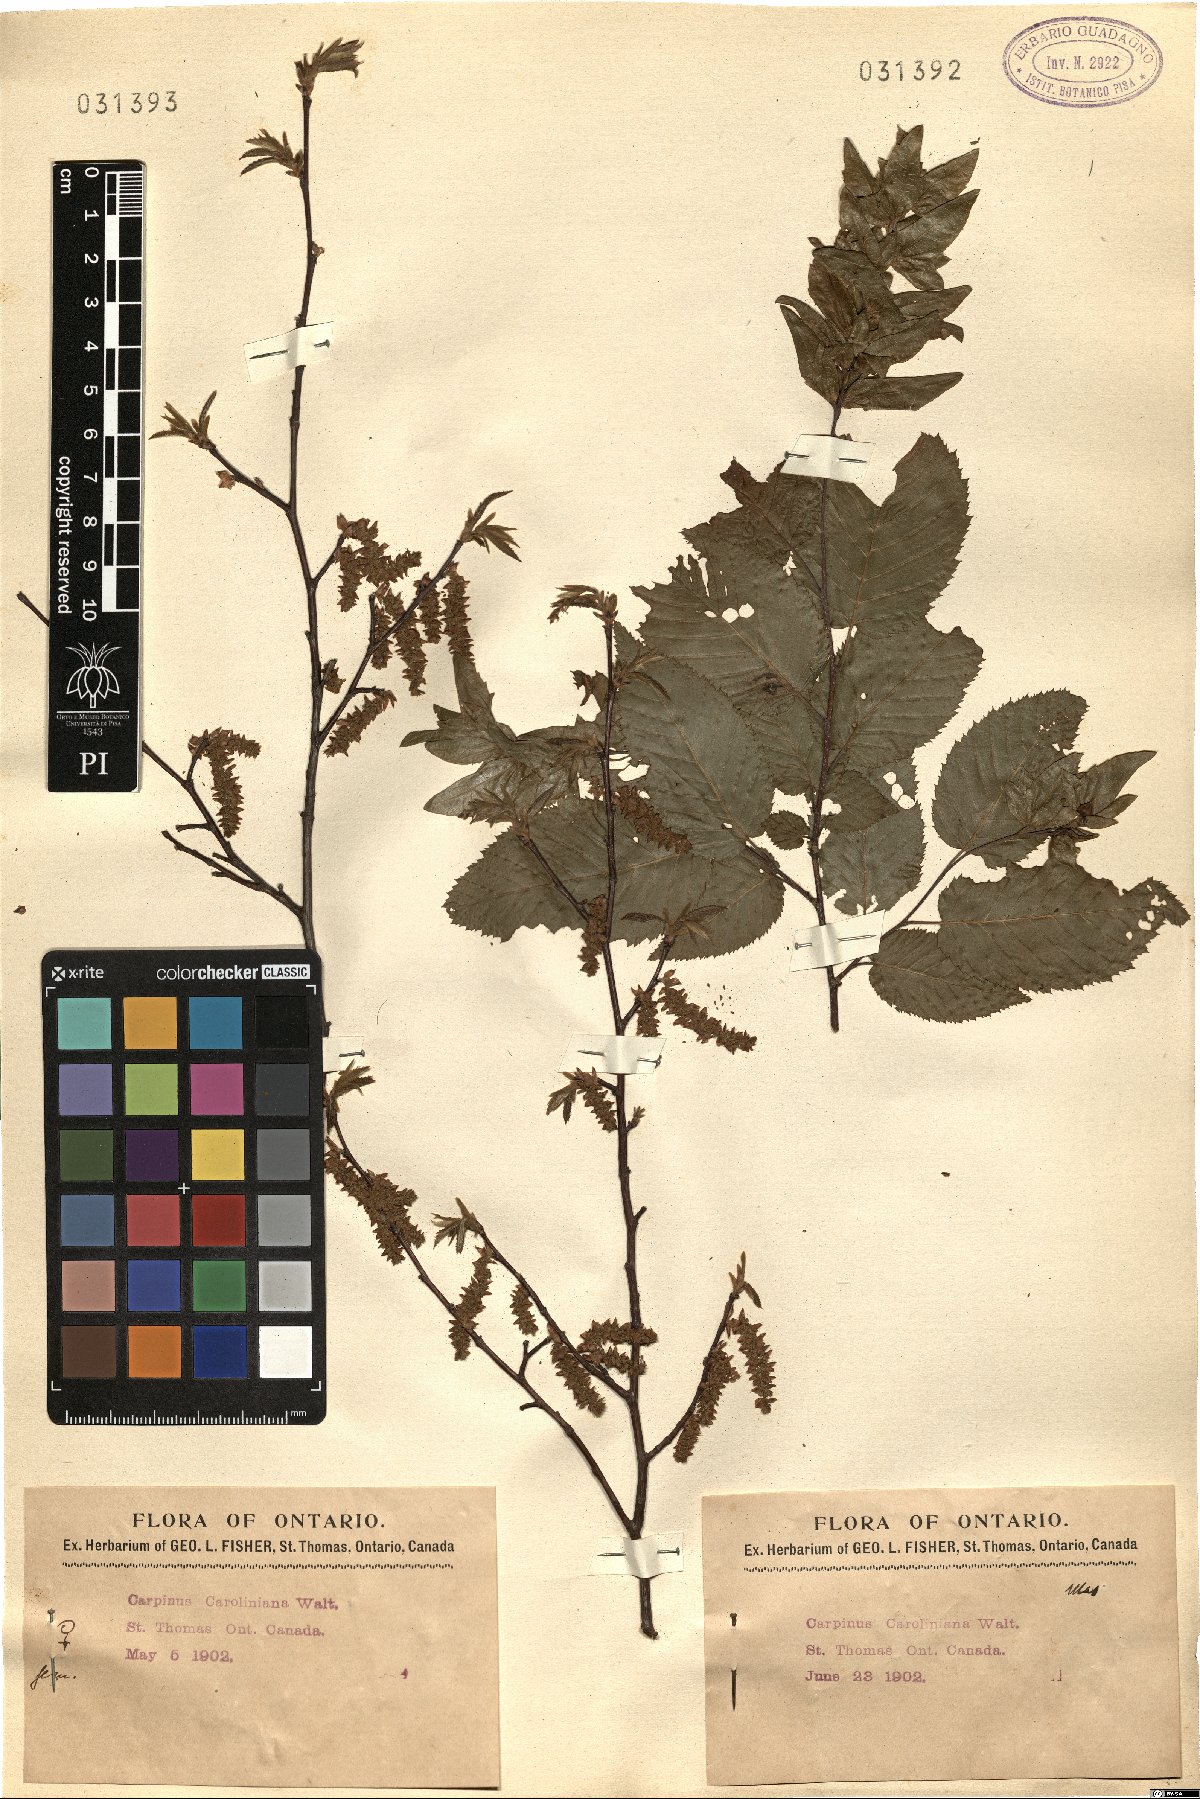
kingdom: Plantae
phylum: Tracheophyta
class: Magnoliopsida
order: Fagales
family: Betulaceae
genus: Carpinus
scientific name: Carpinus caroliniana
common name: American hornbeam
